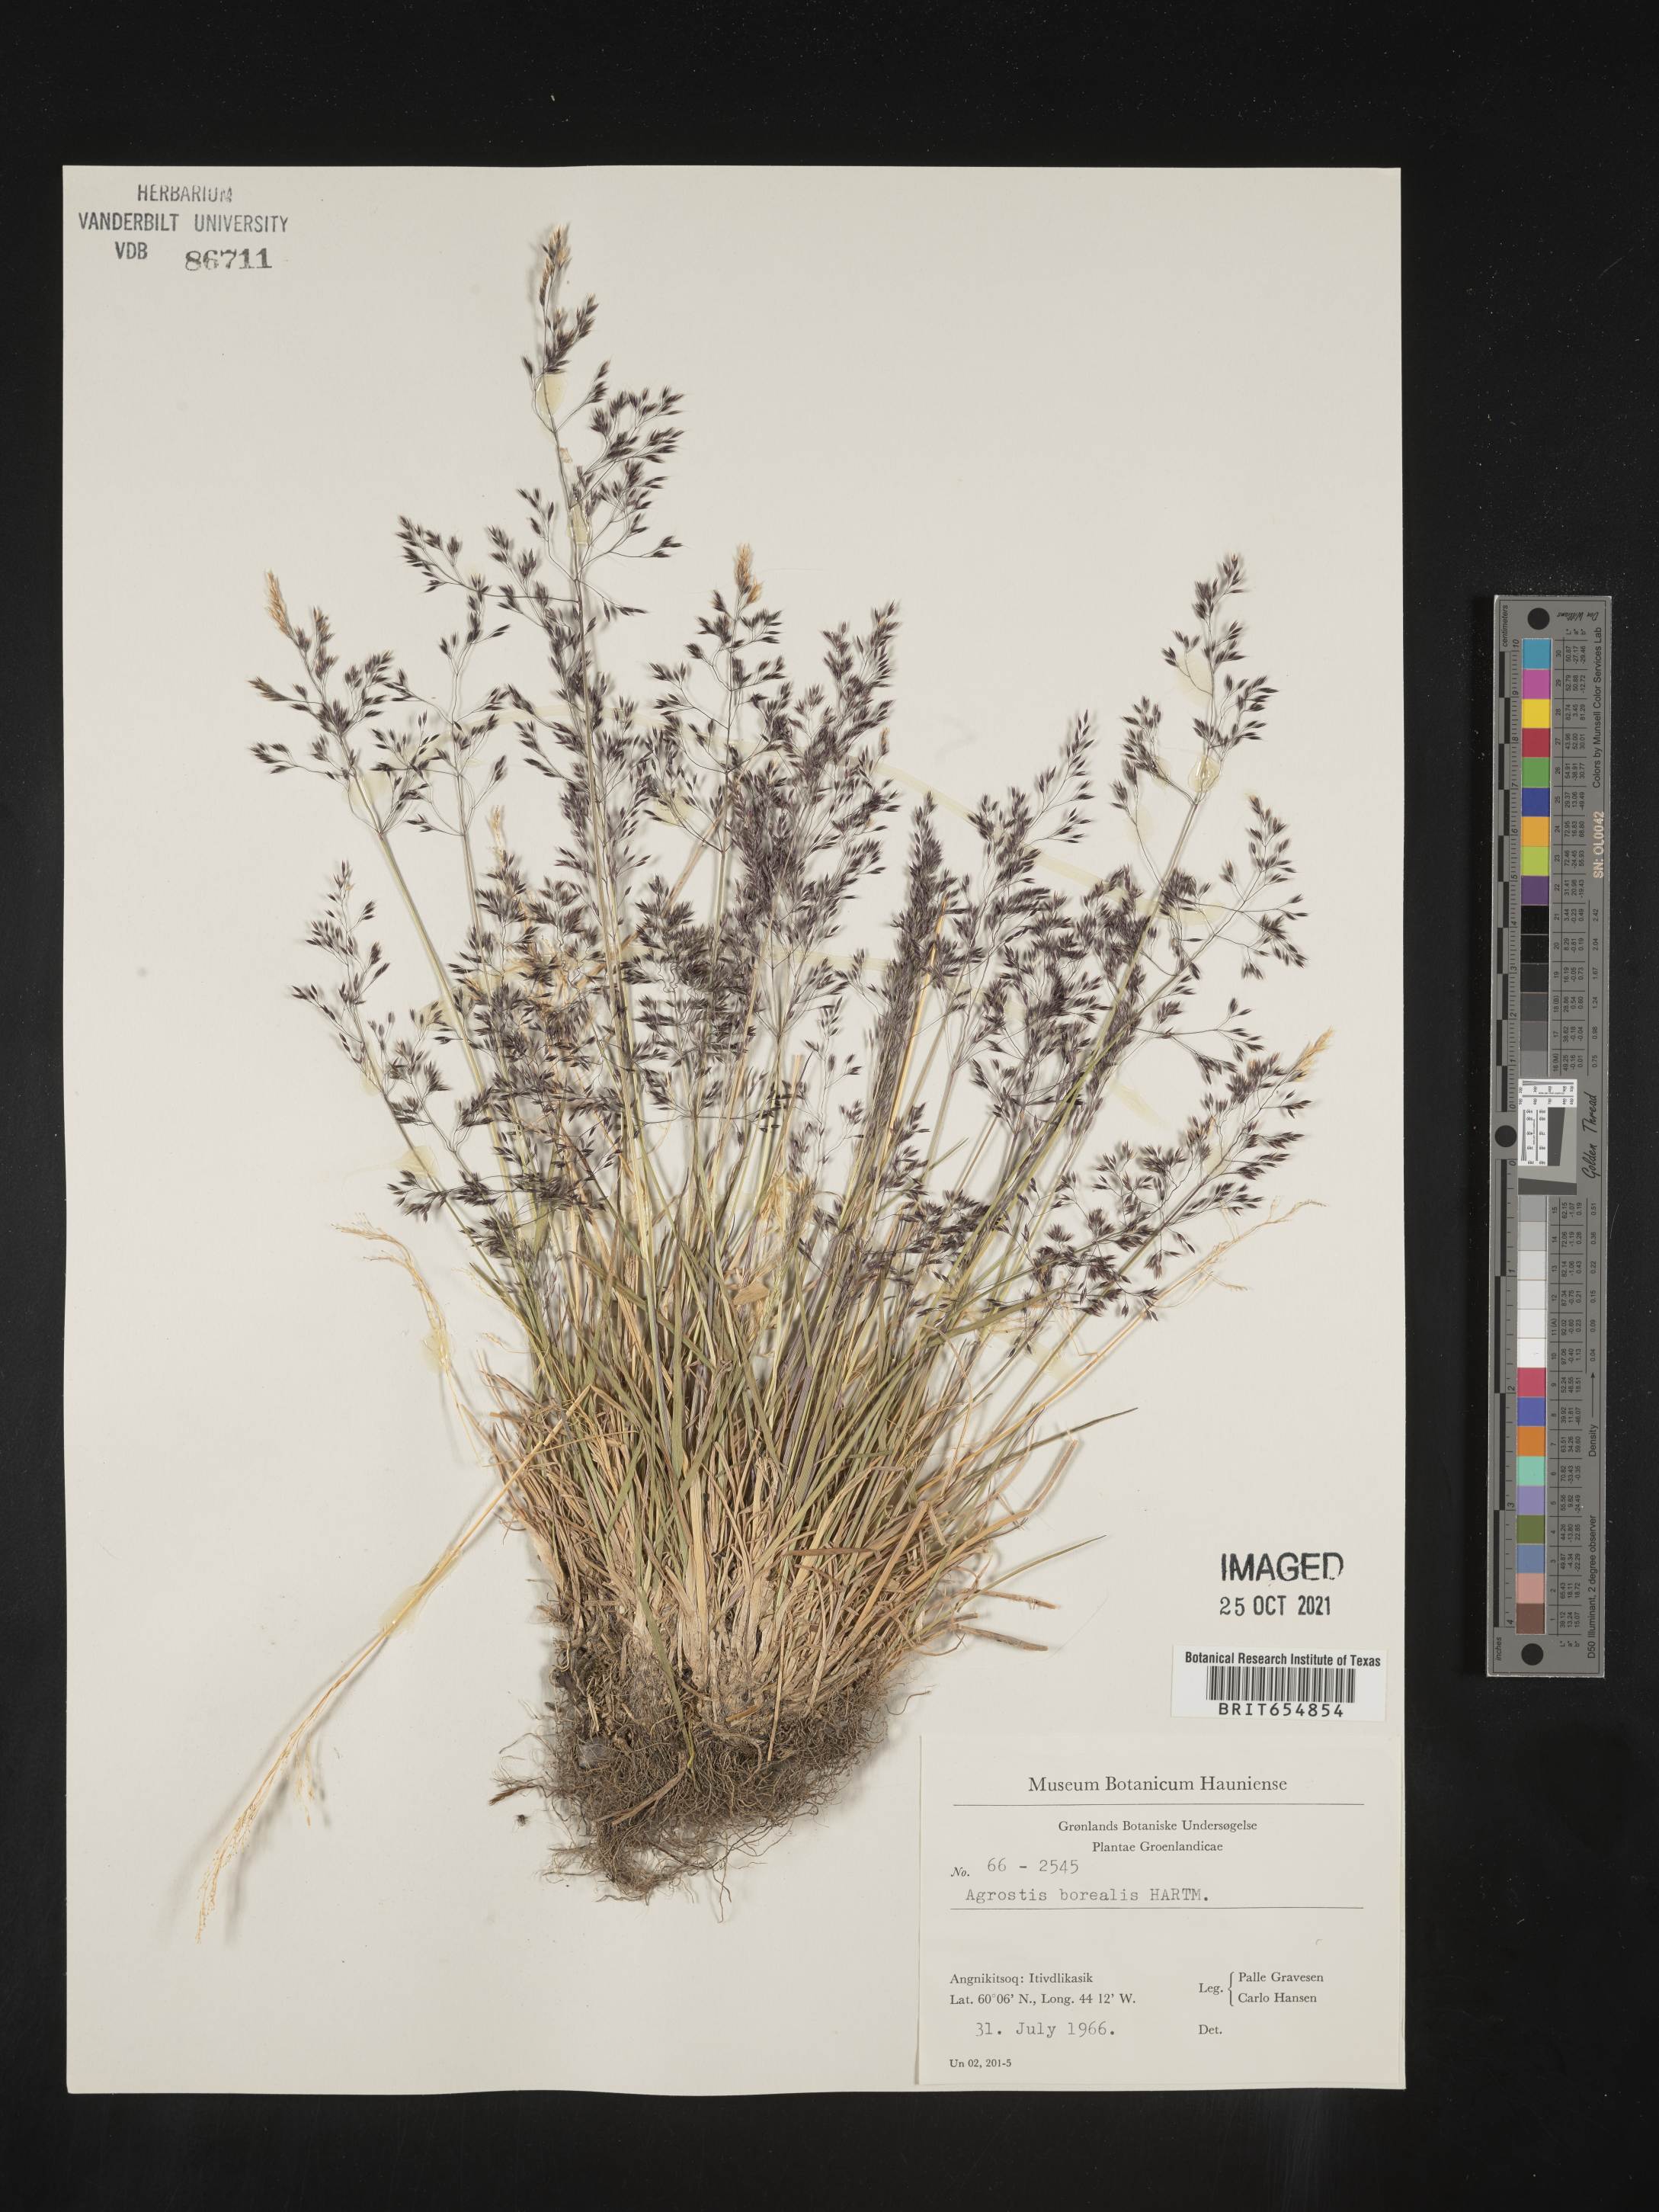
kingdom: Plantae
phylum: Tracheophyta
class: Liliopsida
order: Poales
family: Poaceae
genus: Agrostis
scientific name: Agrostis
